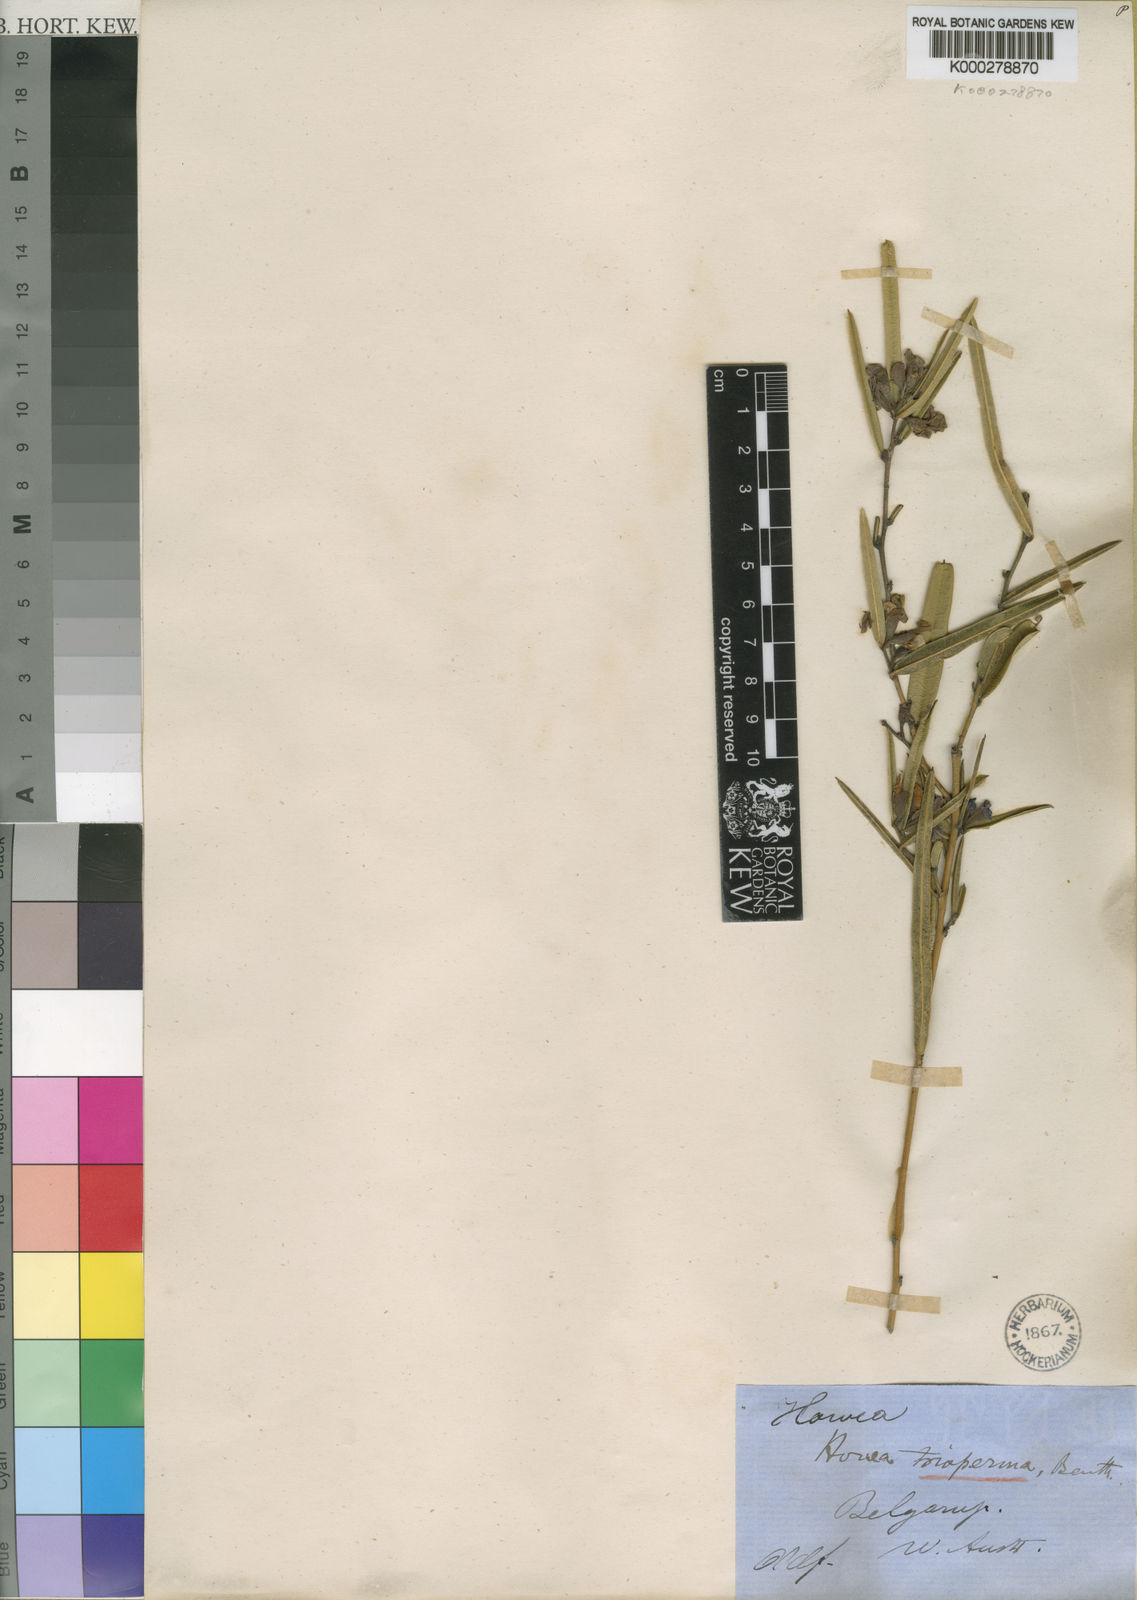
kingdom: Plantae
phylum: Tracheophyta
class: Magnoliopsida
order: Fabales
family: Fabaceae
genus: Hovea
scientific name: Hovea trisperma
